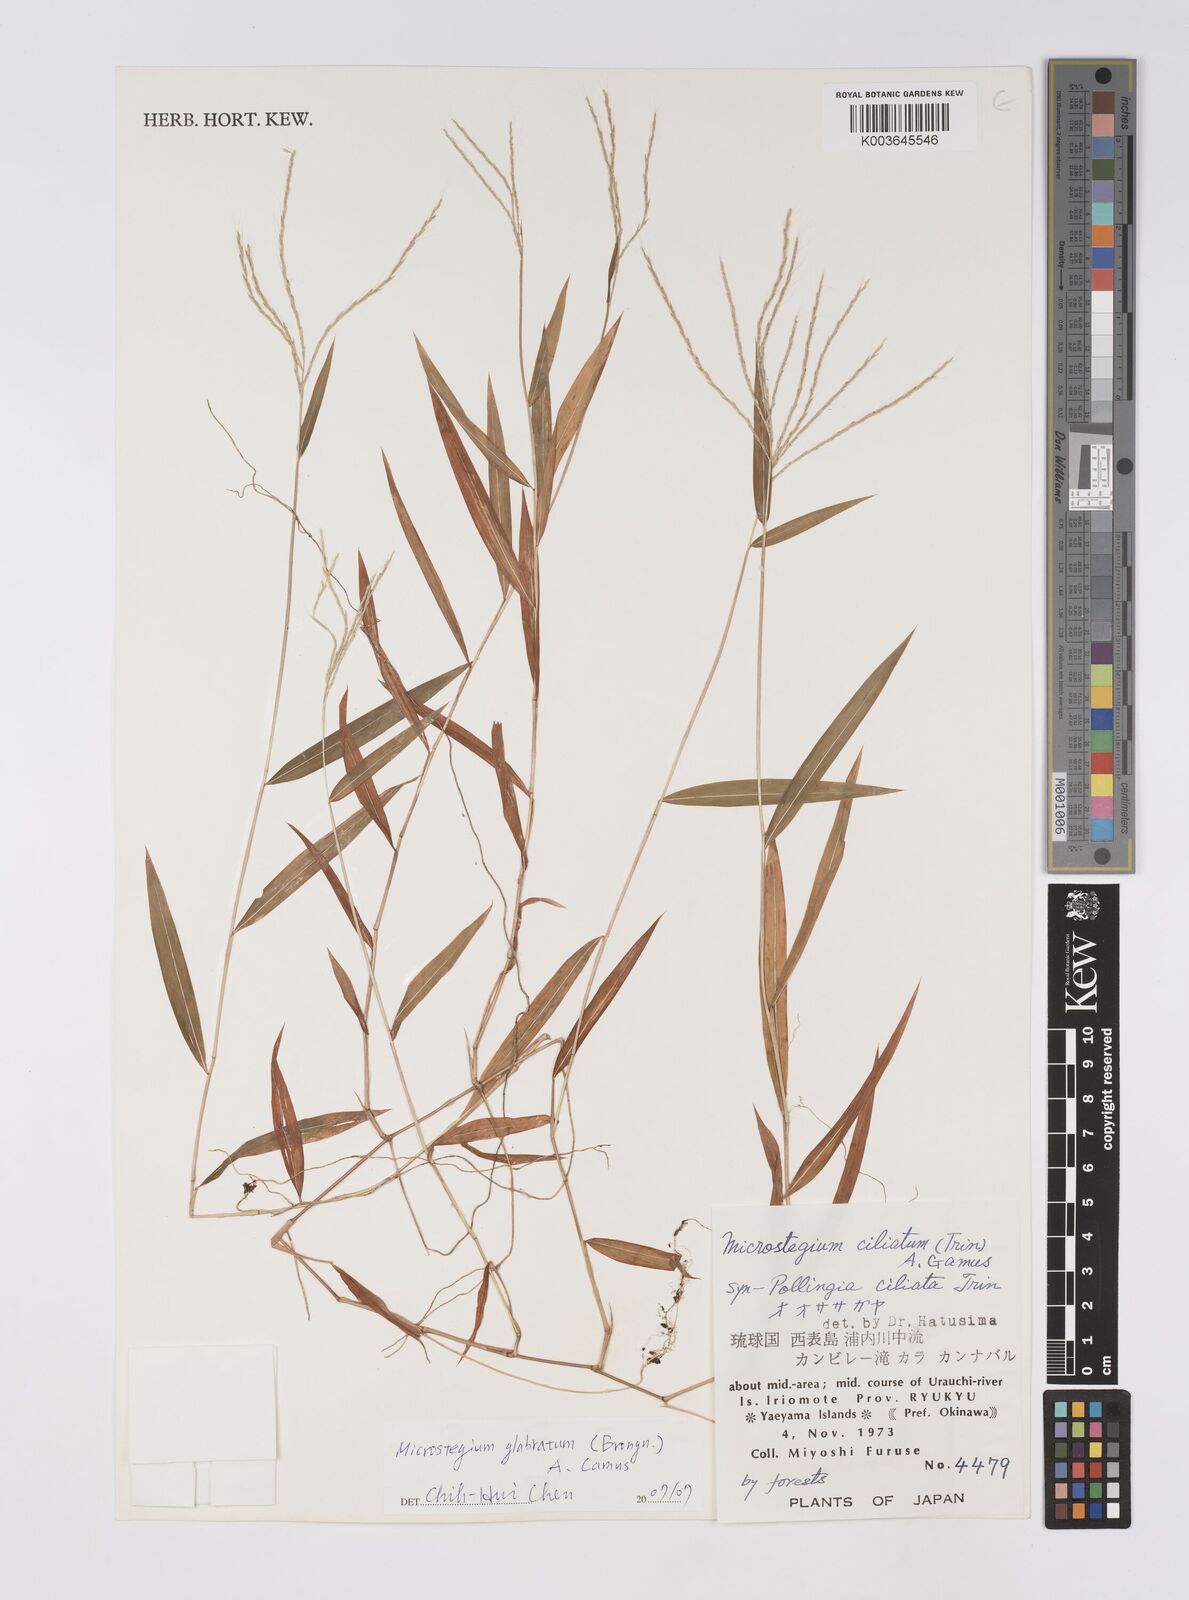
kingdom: Plantae
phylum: Tracheophyta
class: Liliopsida
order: Poales
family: Poaceae
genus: Microstegium
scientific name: Microstegium glabratum
